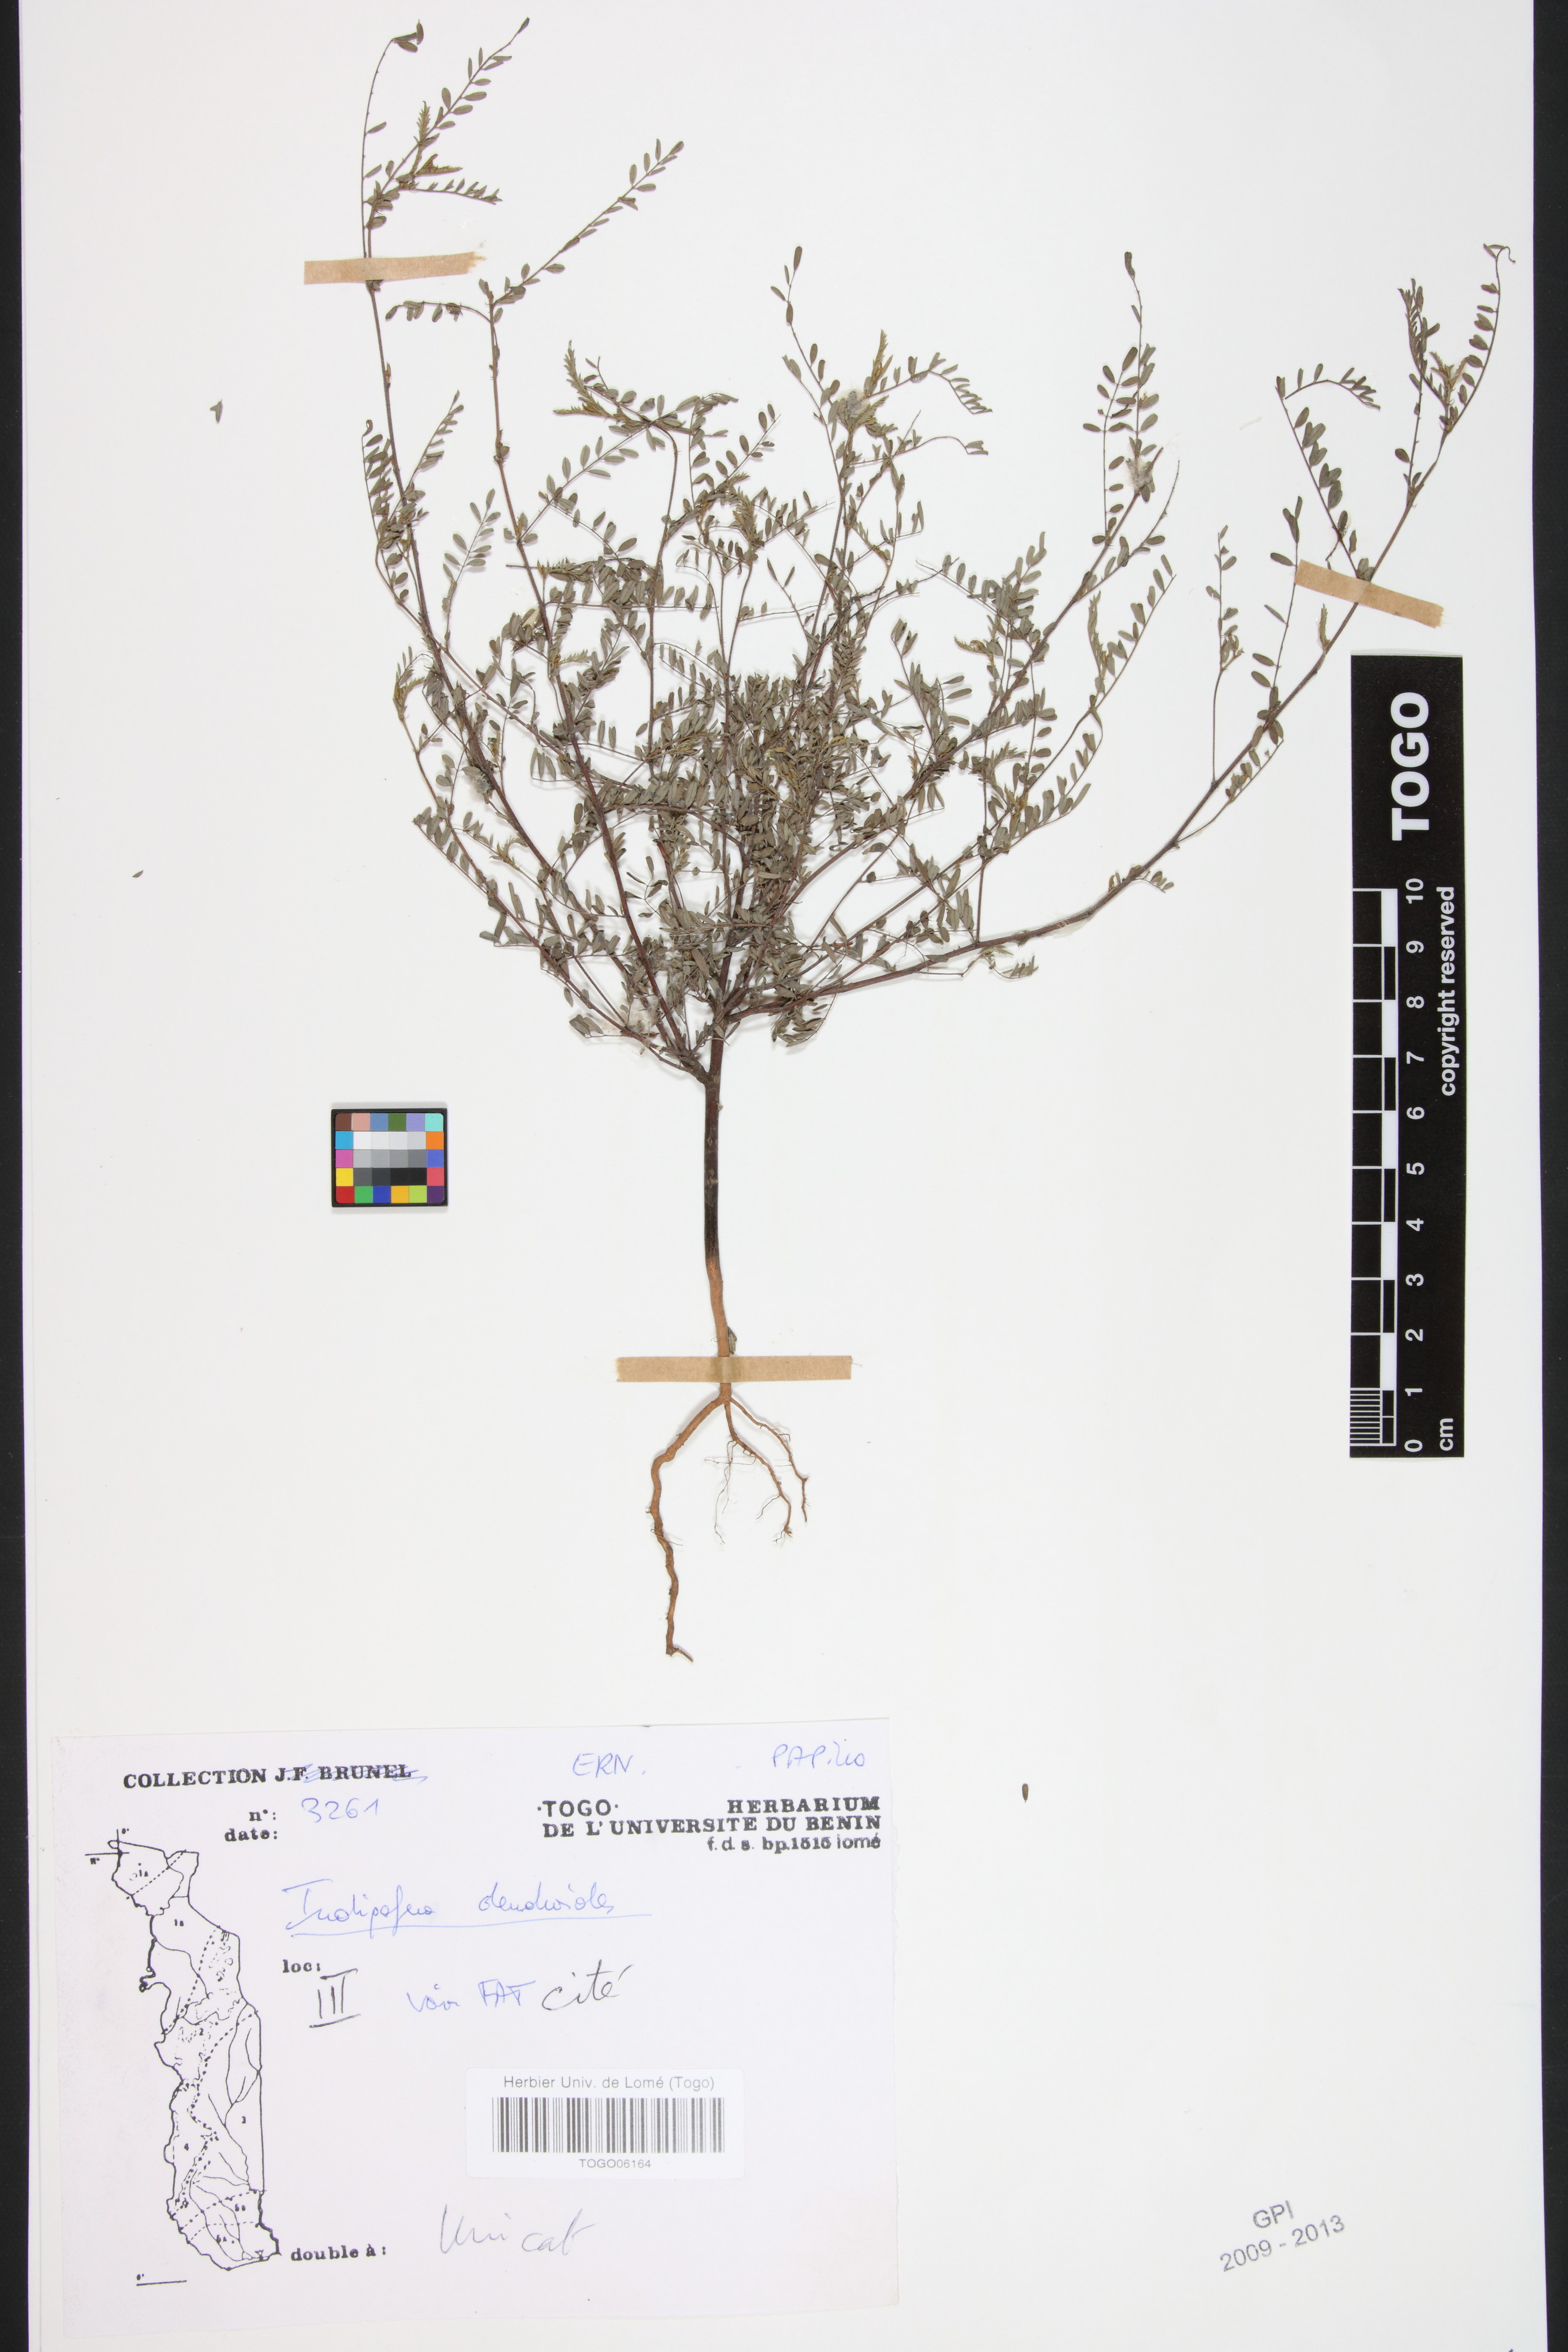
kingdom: Plantae
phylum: Tracheophyta
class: Magnoliopsida
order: Fabales
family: Fabaceae
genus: Indigofera
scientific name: Indigofera dendroides
